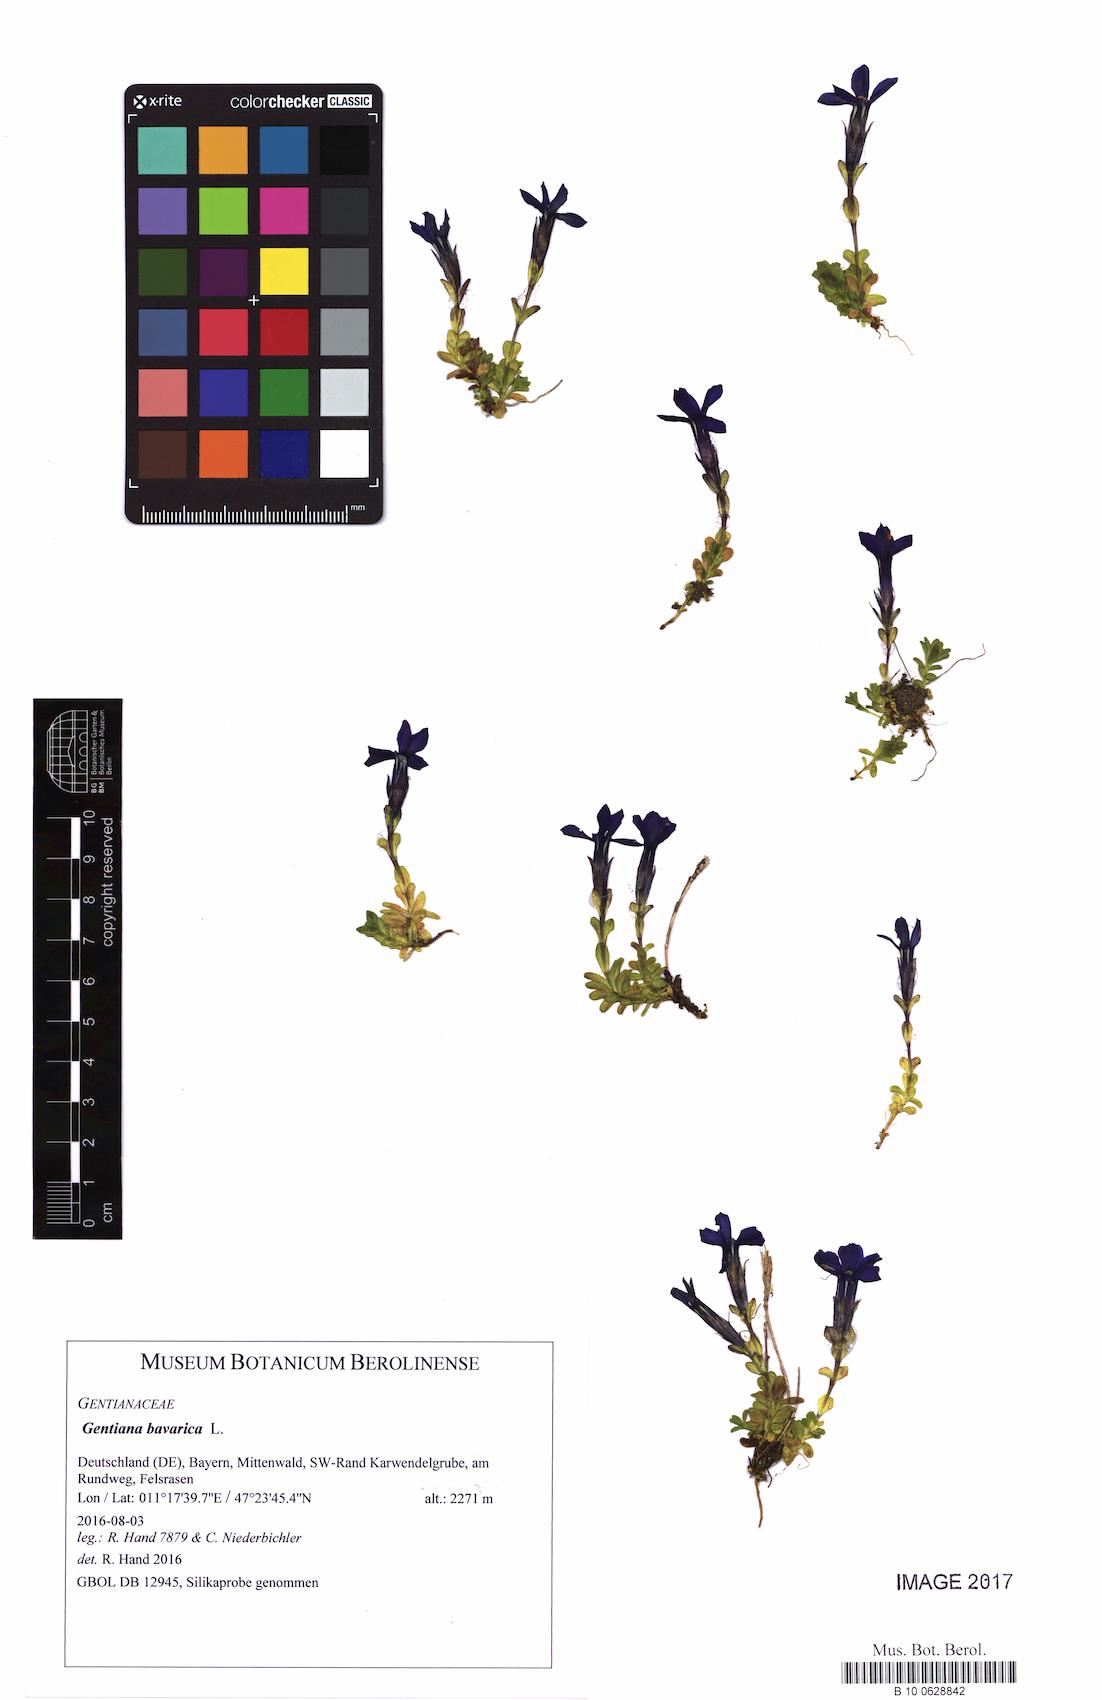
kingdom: Plantae
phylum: Tracheophyta
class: Magnoliopsida
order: Gentianales
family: Gentianaceae
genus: Gentiana
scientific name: Gentiana bavarica
